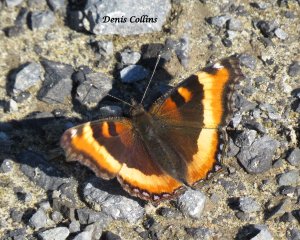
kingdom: Animalia
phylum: Arthropoda
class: Insecta
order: Lepidoptera
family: Nymphalidae
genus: Aglais
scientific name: Aglais milberti
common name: Milbert's Tortoiseshell
